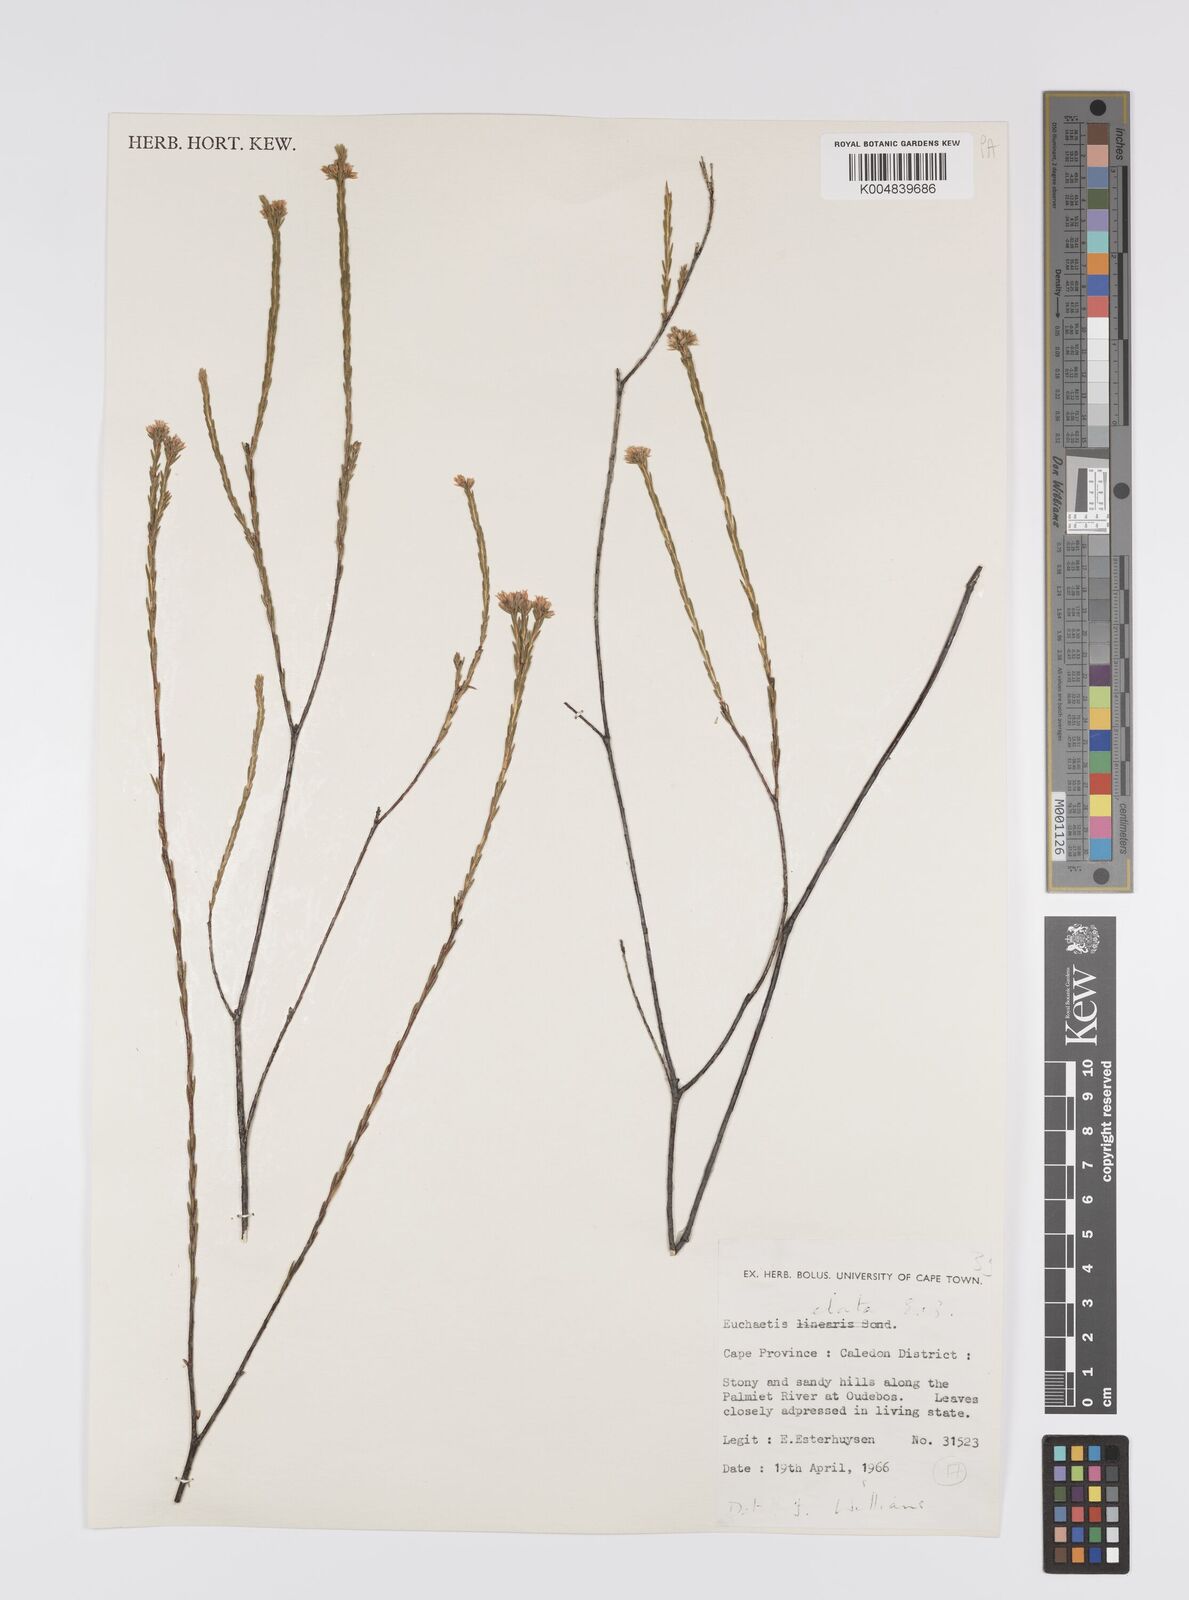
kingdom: Plantae
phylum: Tracheophyta
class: Magnoliopsida
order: Sapindales
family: Rutaceae
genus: Euchaetis
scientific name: Euchaetis elata
